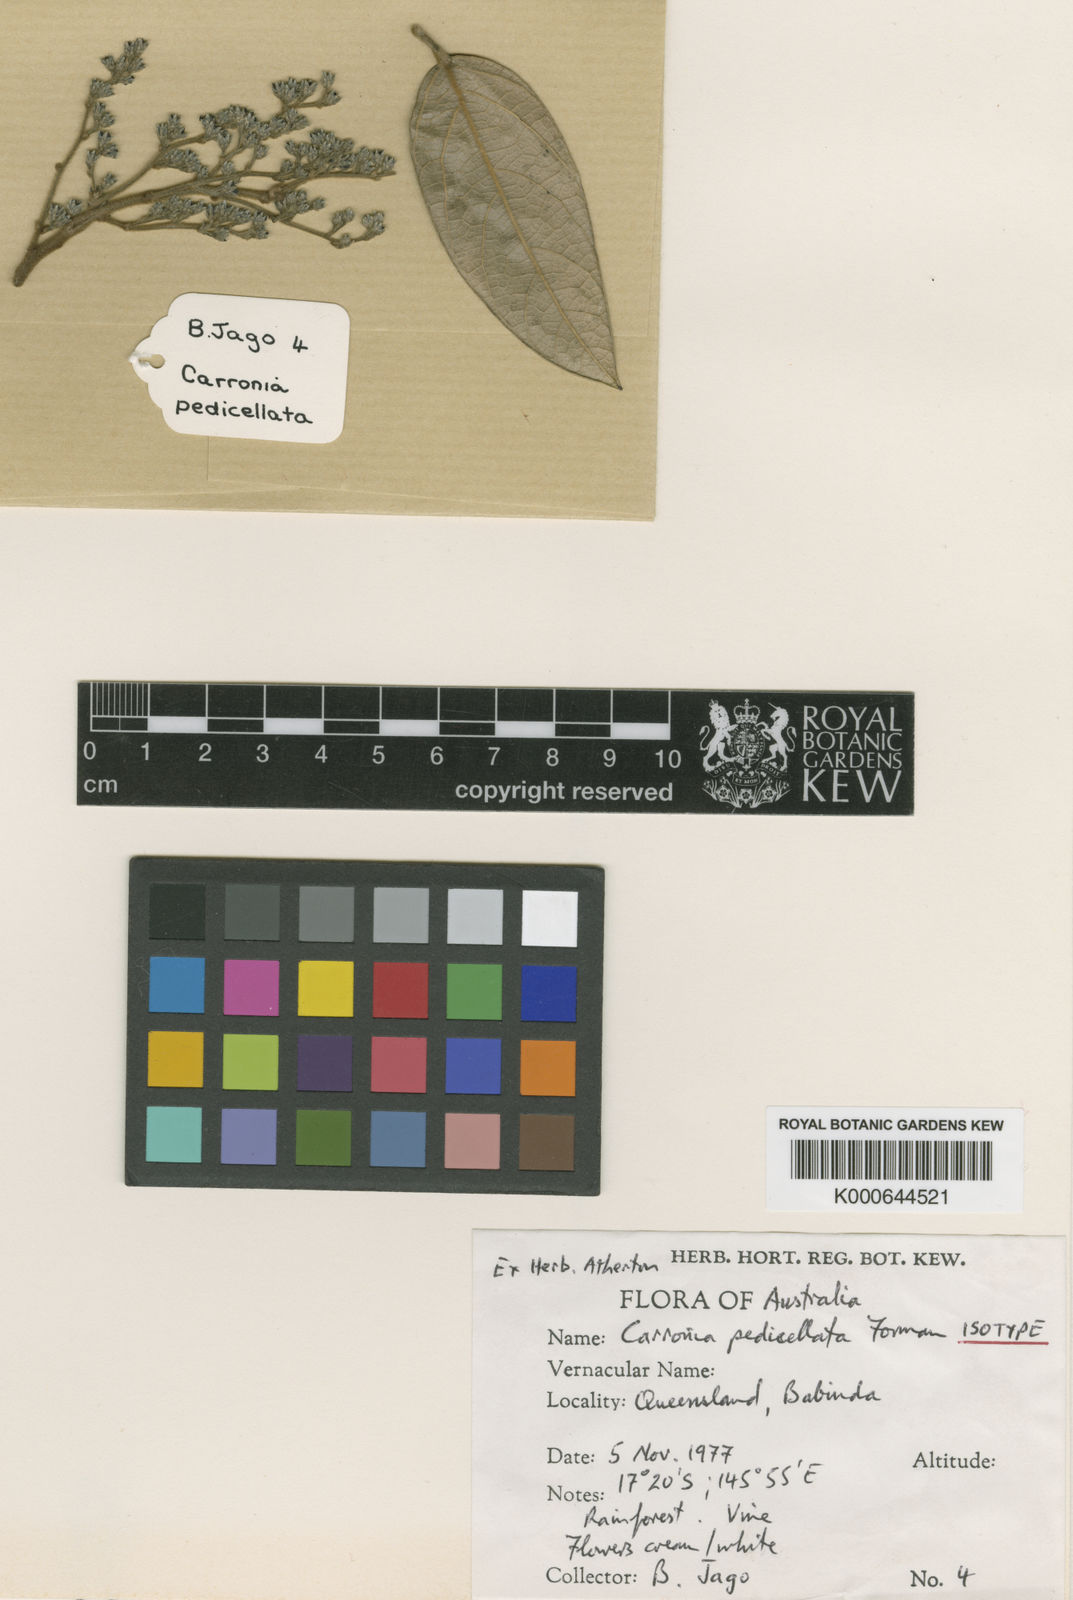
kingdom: Plantae
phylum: Tracheophyta
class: Magnoliopsida
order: Ranunculales
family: Menispermaceae
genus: Carronia
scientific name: Carronia pedicellata
